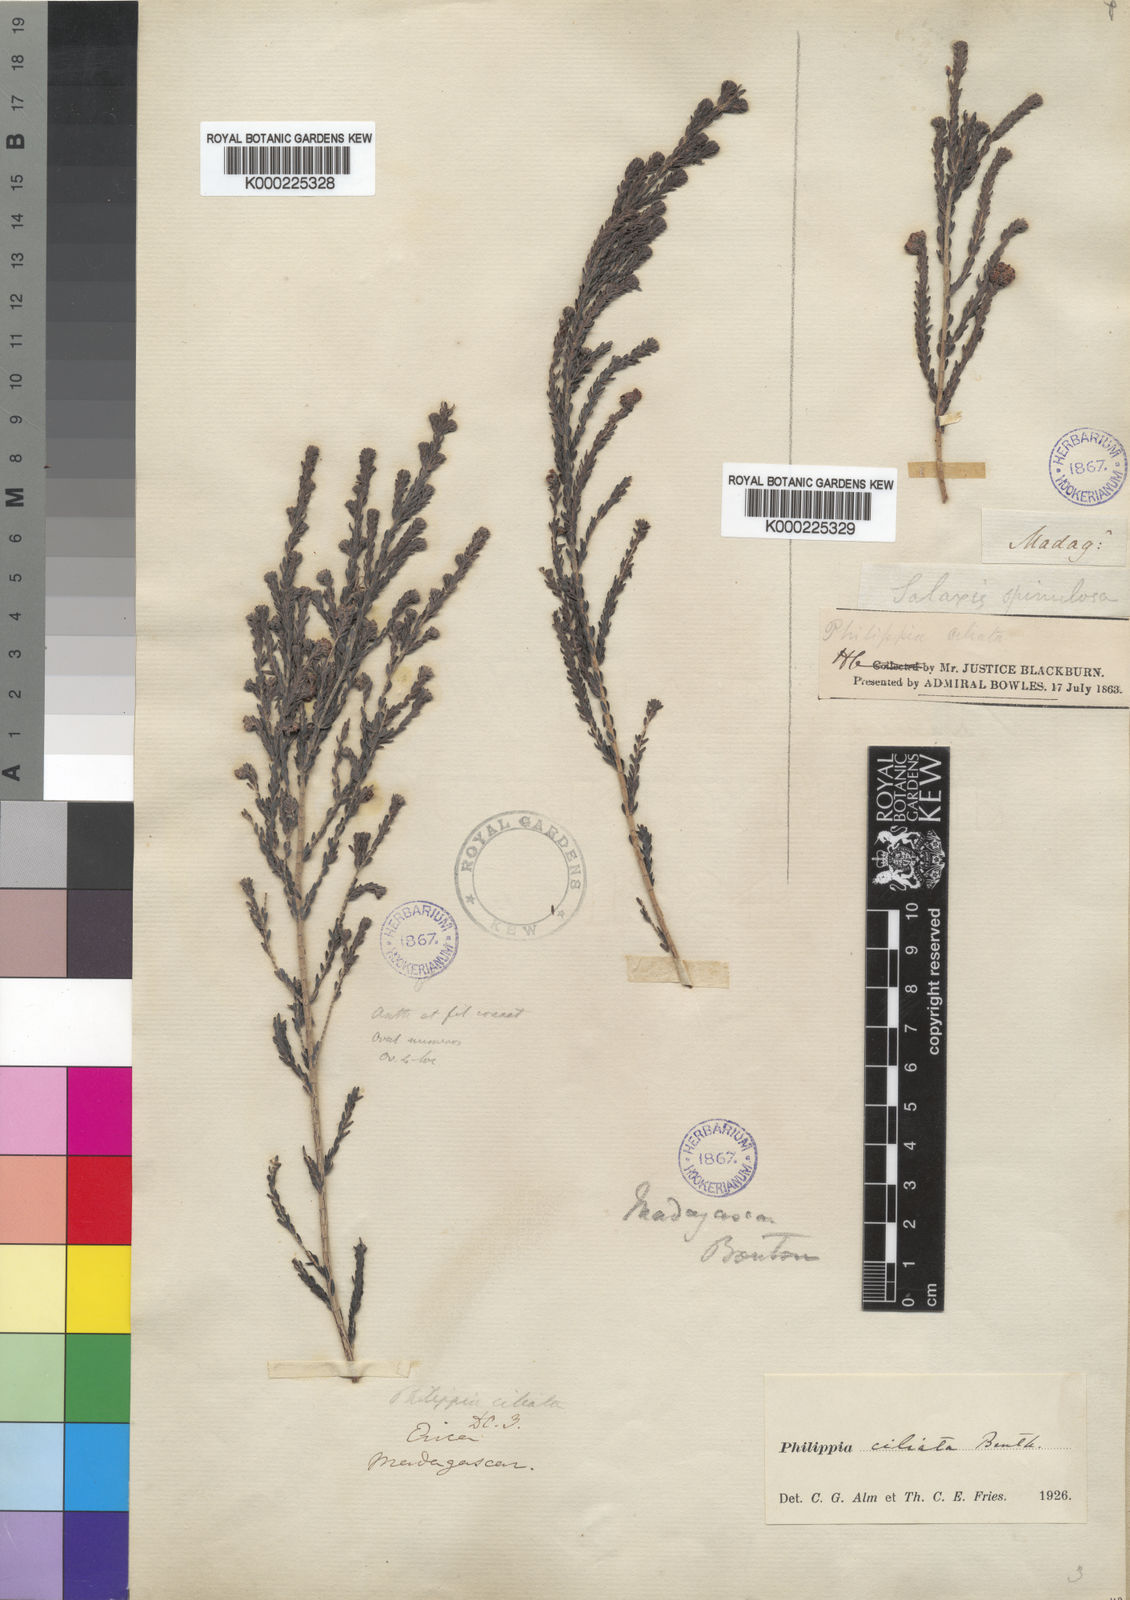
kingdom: Plantae
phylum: Tracheophyta
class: Magnoliopsida
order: Ericales
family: Ericaceae
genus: Erica
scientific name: Erica boutonii
